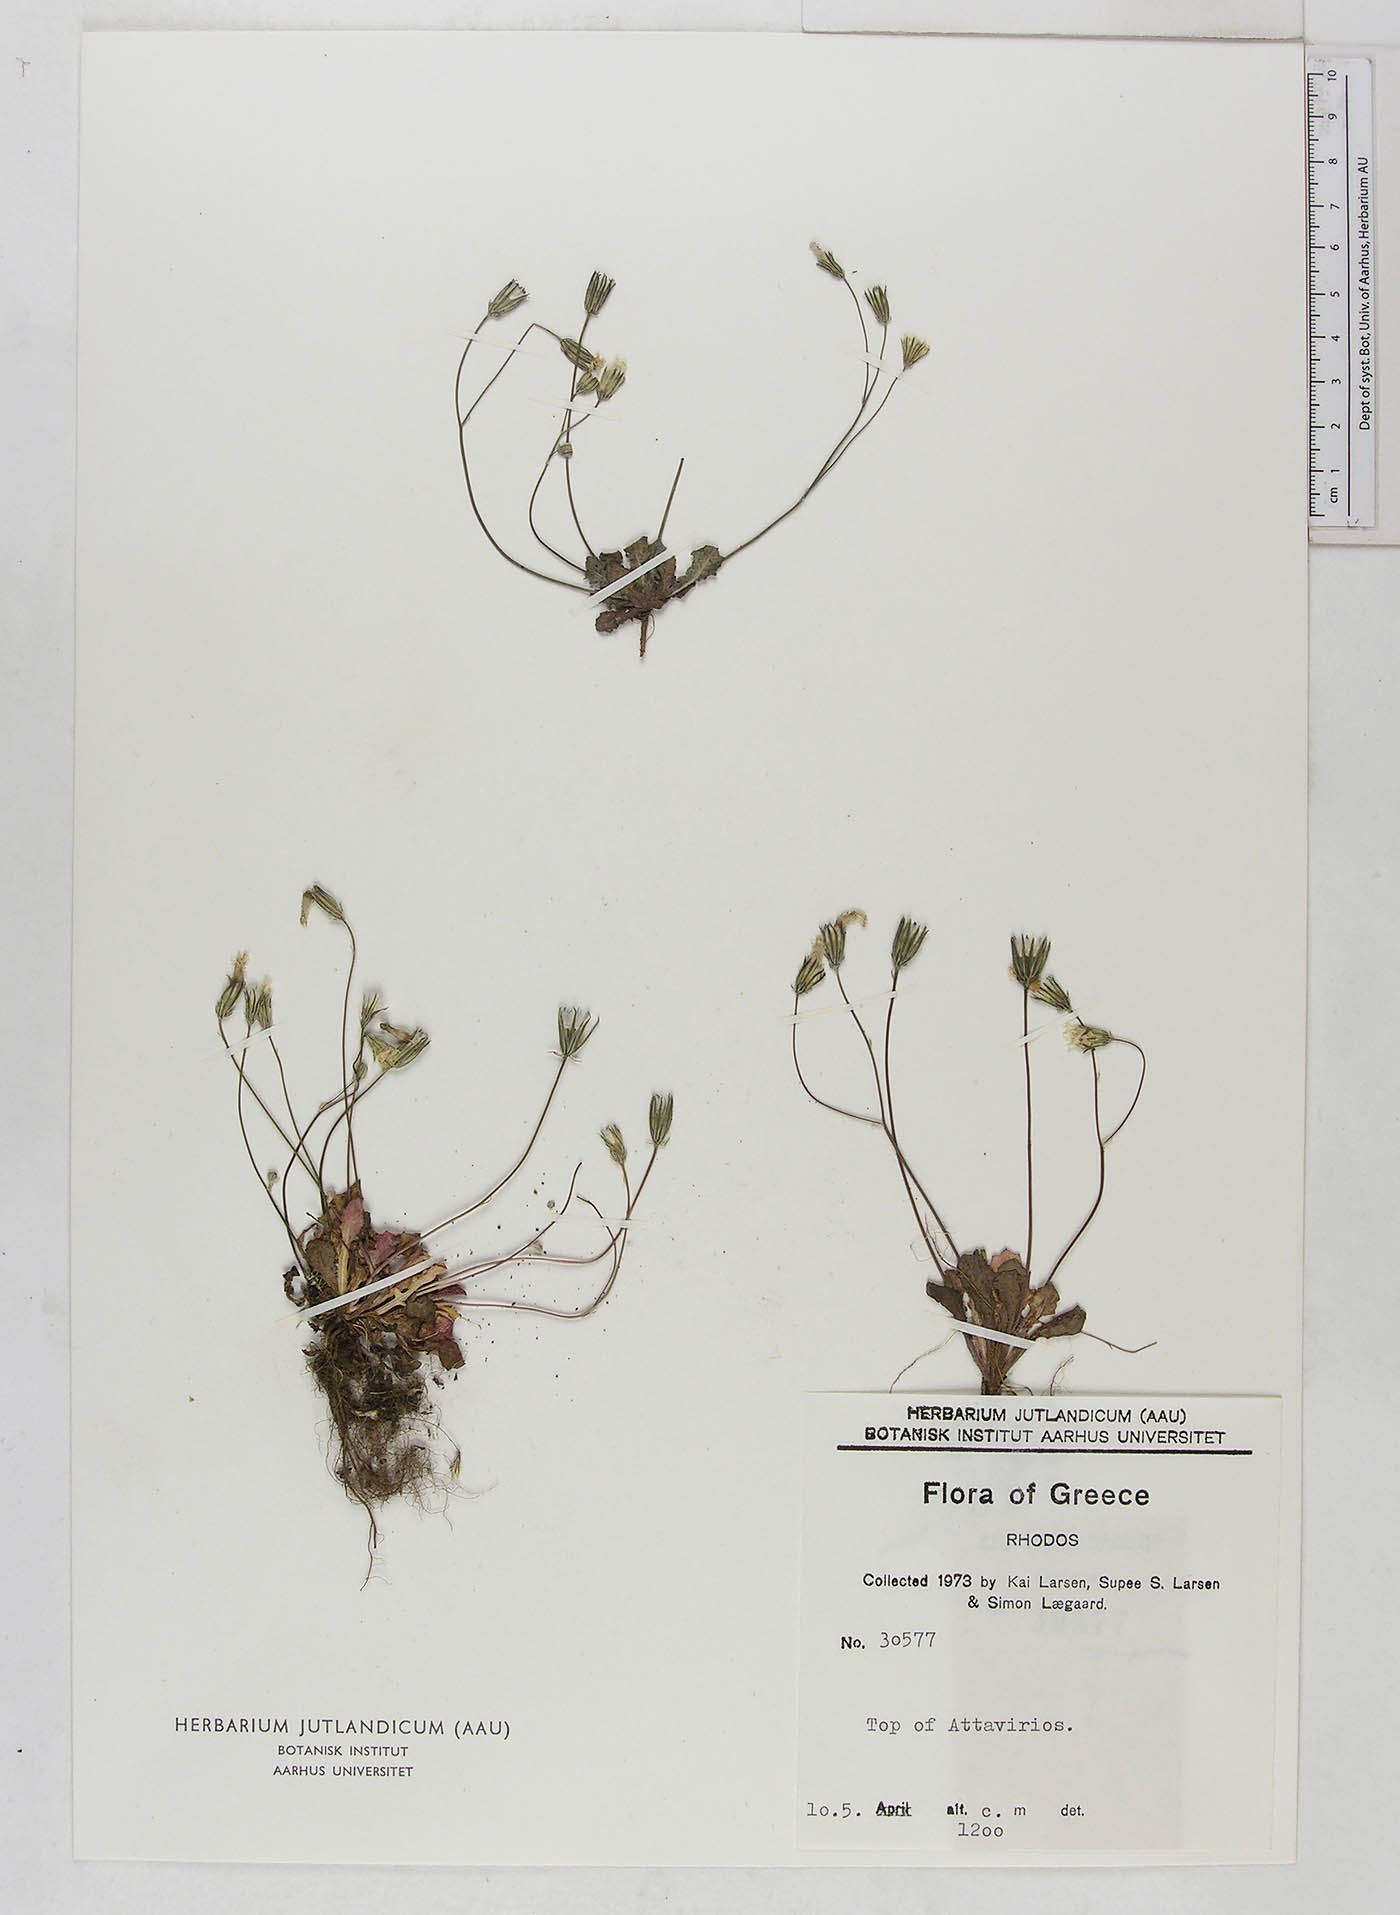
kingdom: Plantae
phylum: Tracheophyta
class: Magnoliopsida
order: Asterales
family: Asteraceae
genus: Crepis
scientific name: Crepis neglecta
